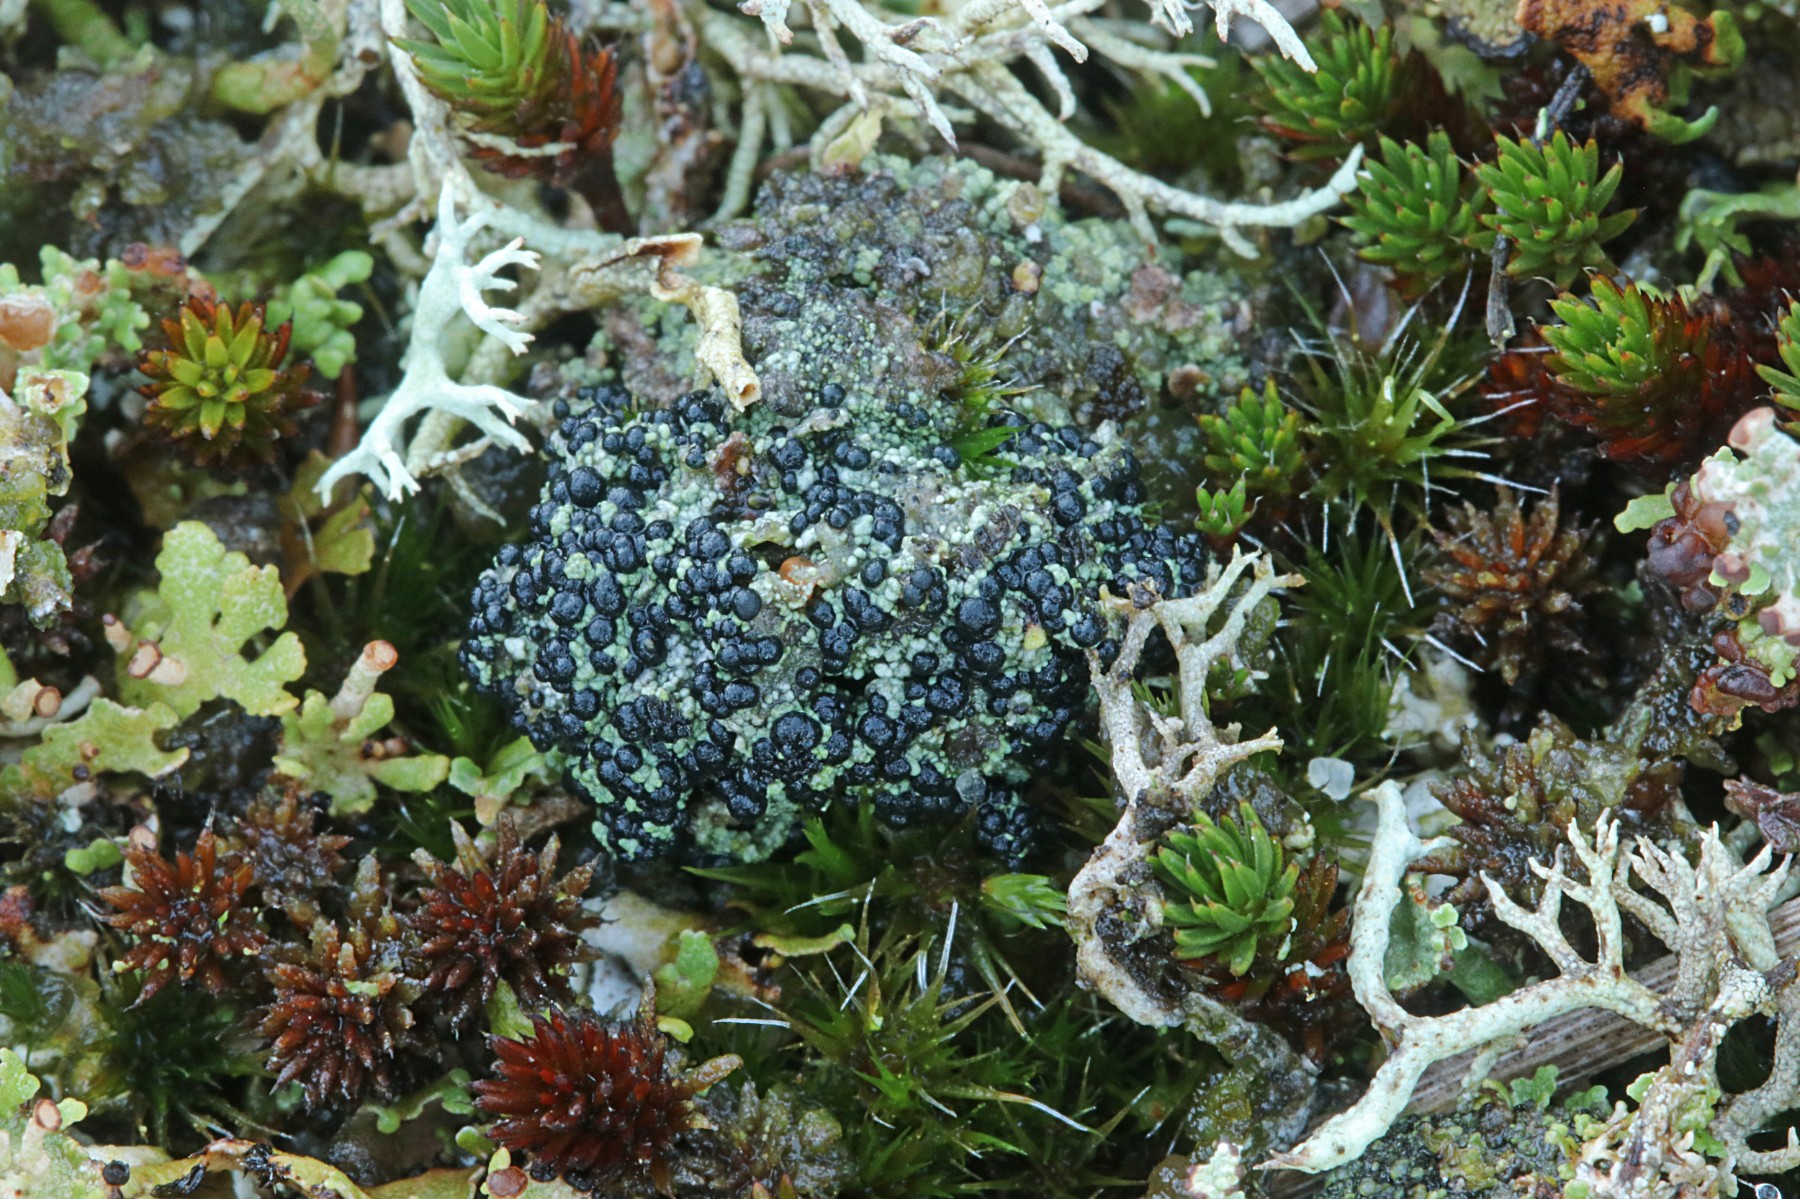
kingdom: Fungi
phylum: Ascomycota
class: Lecanoromycetes
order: Lecanorales
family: Byssolomataceae
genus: Micarea
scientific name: Micarea lignaria
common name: tørve-knaplav
